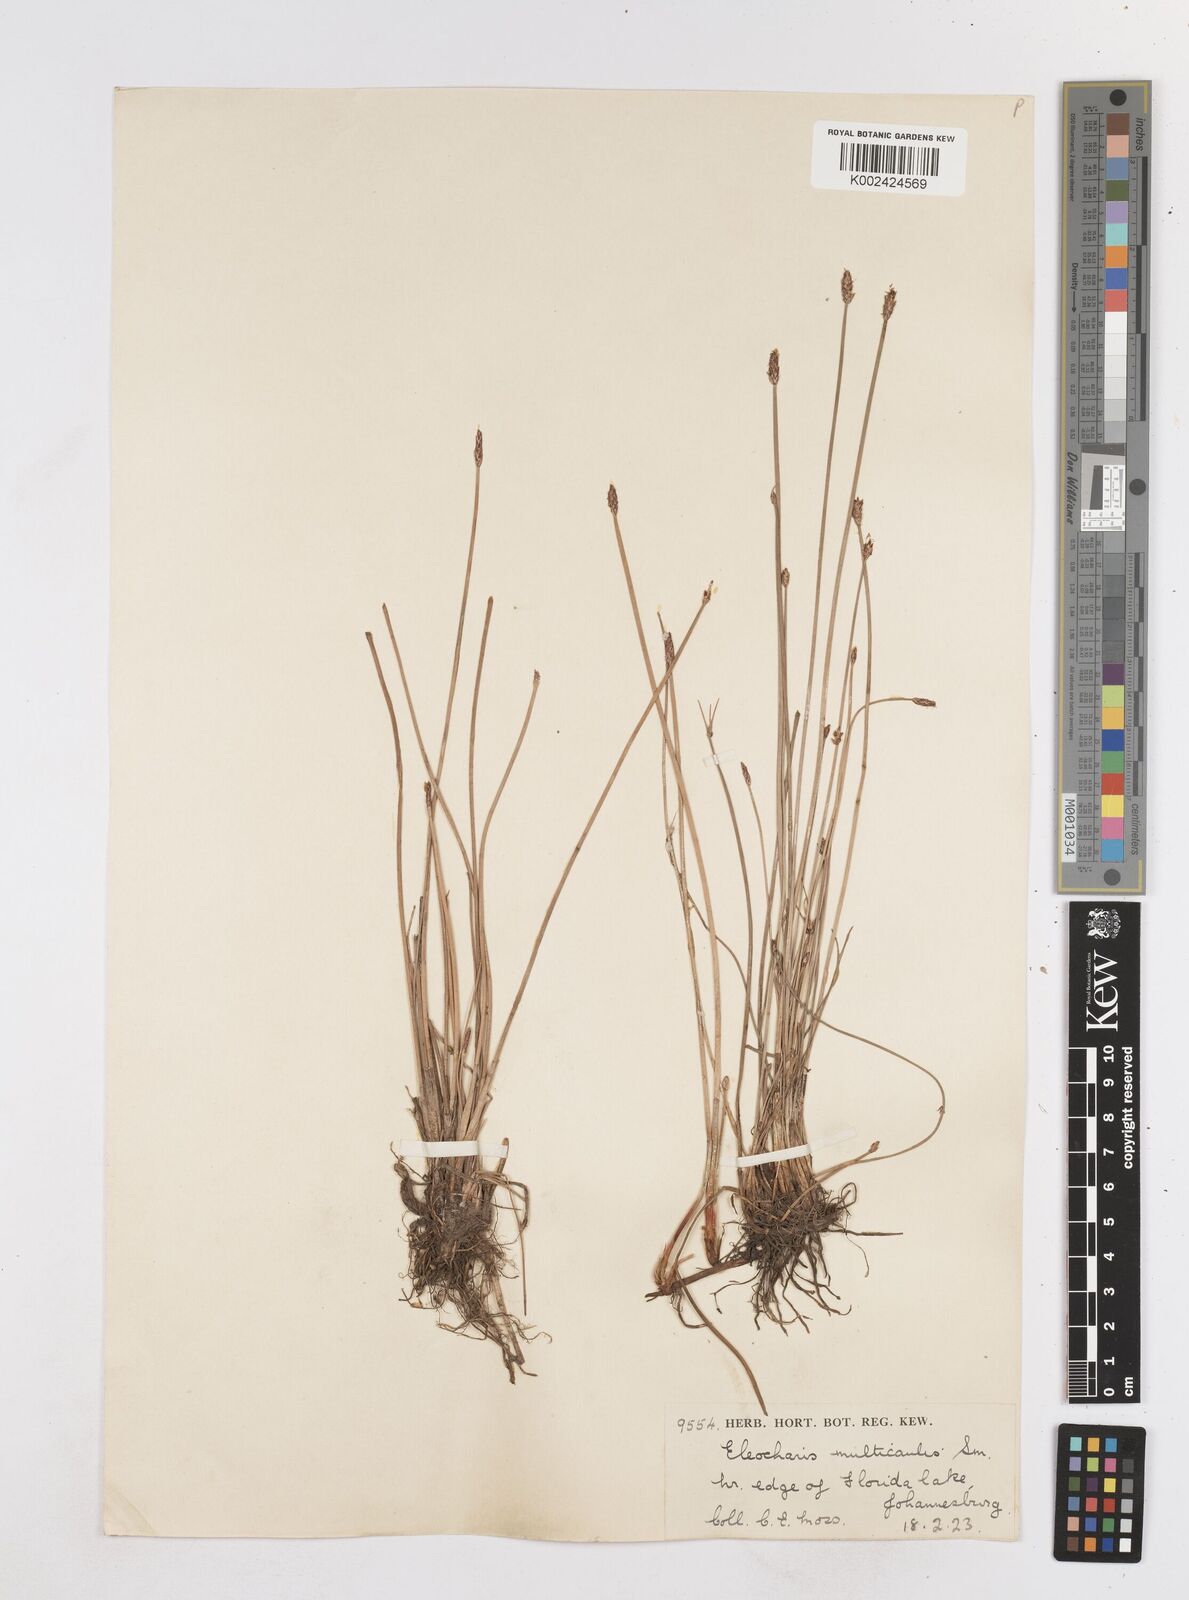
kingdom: Plantae
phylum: Tracheophyta
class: Liliopsida
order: Poales
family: Cyperaceae
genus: Eleocharis
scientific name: Eleocharis palustris
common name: Common spike-rush
